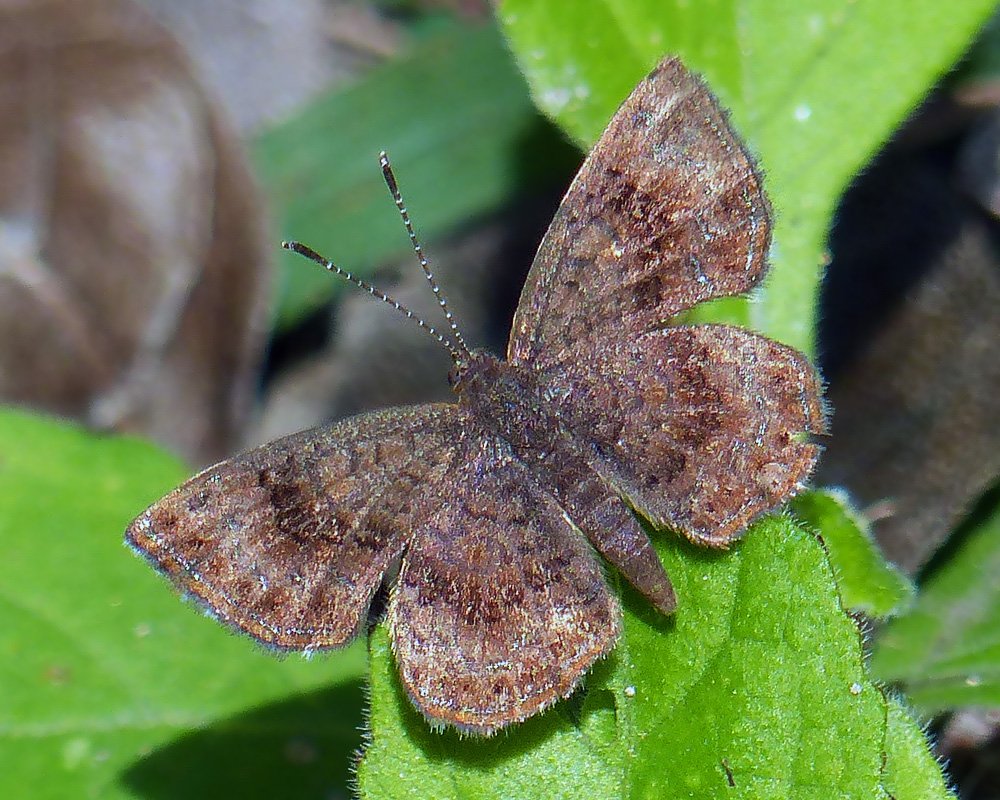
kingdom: Animalia
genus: Calephelis
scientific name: Calephelis nemesis
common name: Fatal Metalmark
